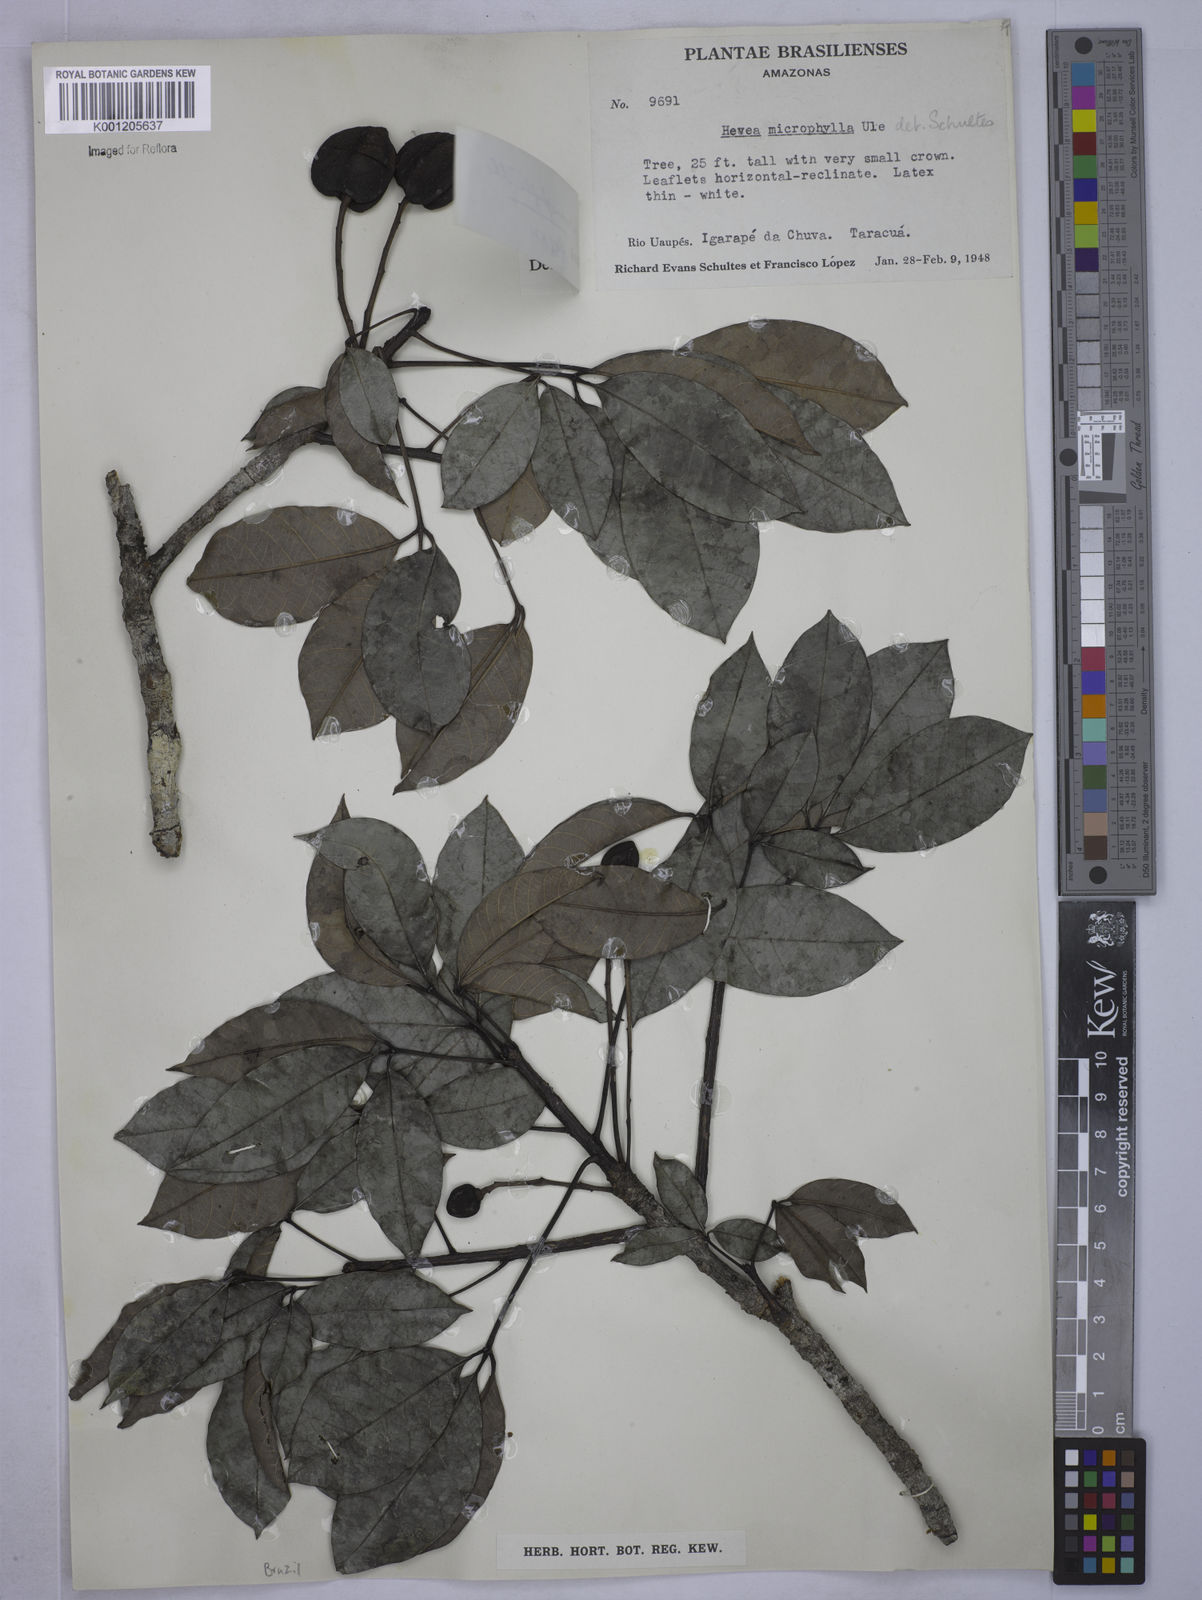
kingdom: Plantae
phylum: Tracheophyta
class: Magnoliopsida
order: Malpighiales
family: Euphorbiaceae
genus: Hevea
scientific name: Hevea microphylla
